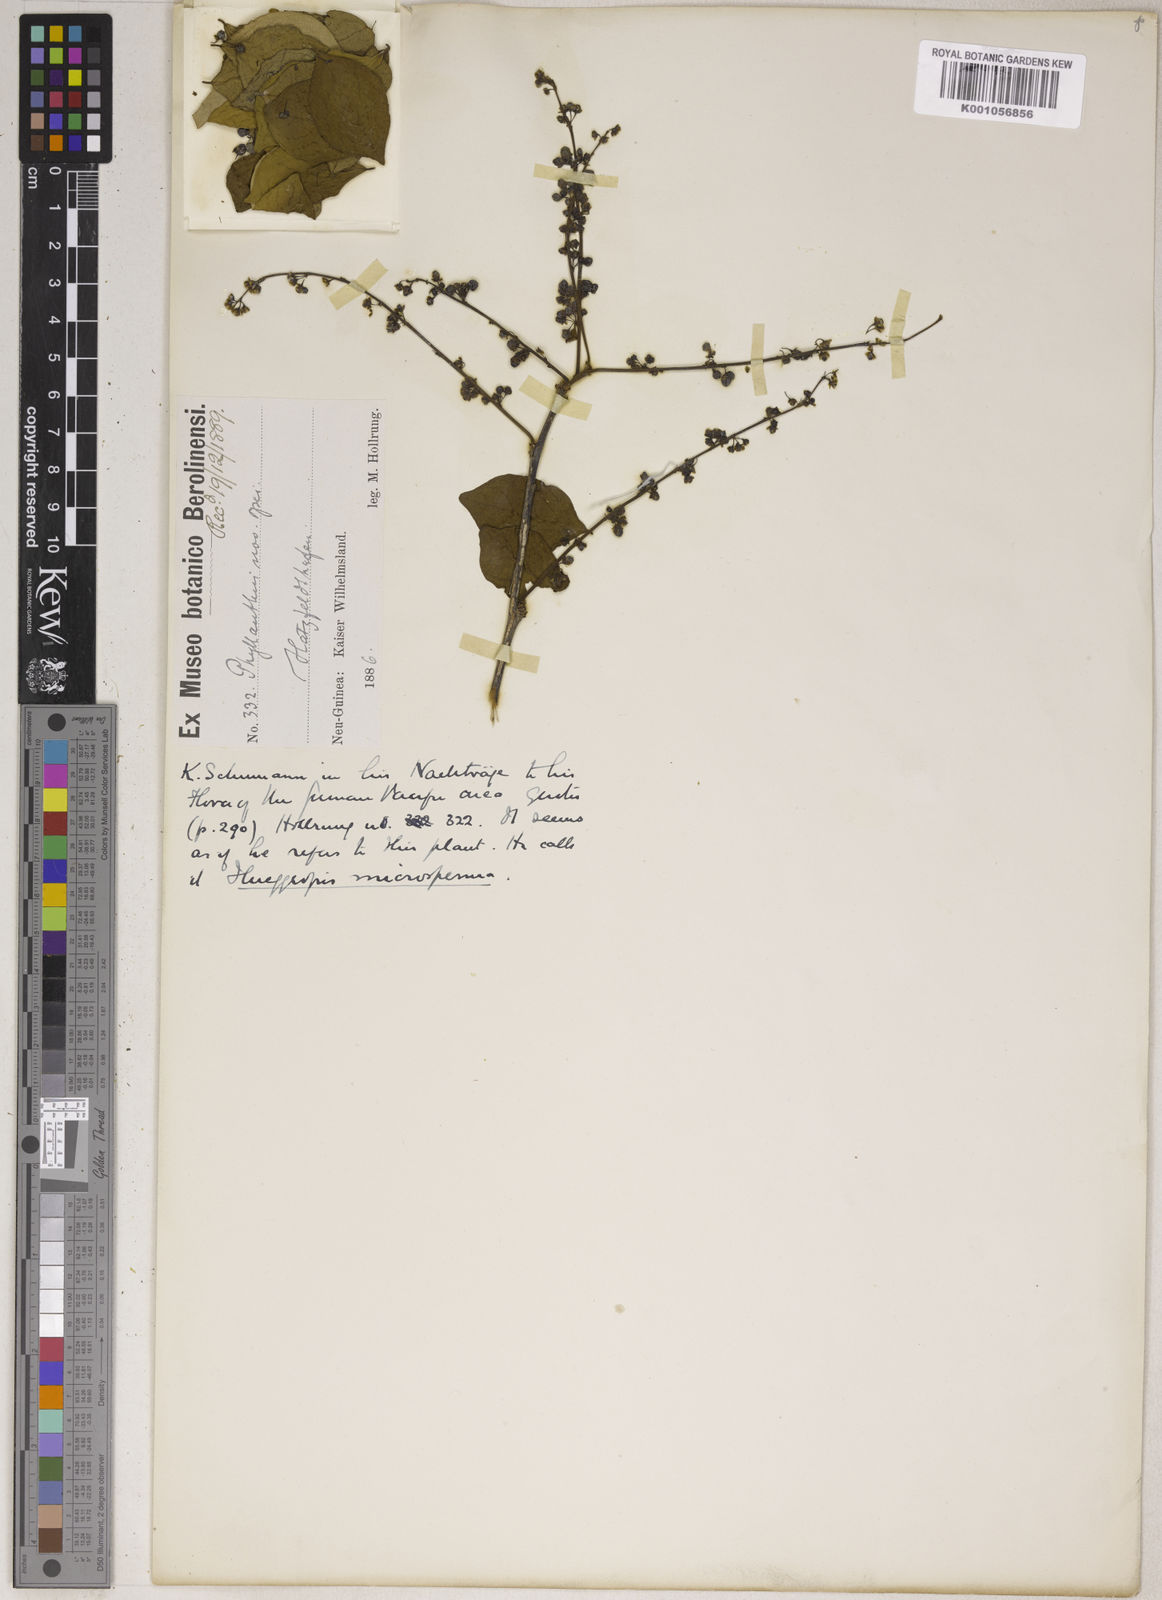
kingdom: Plantae
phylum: Tracheophyta
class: Magnoliopsida
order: Malpighiales
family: Phyllanthaceae
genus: Phyllanthus
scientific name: Phyllanthus
